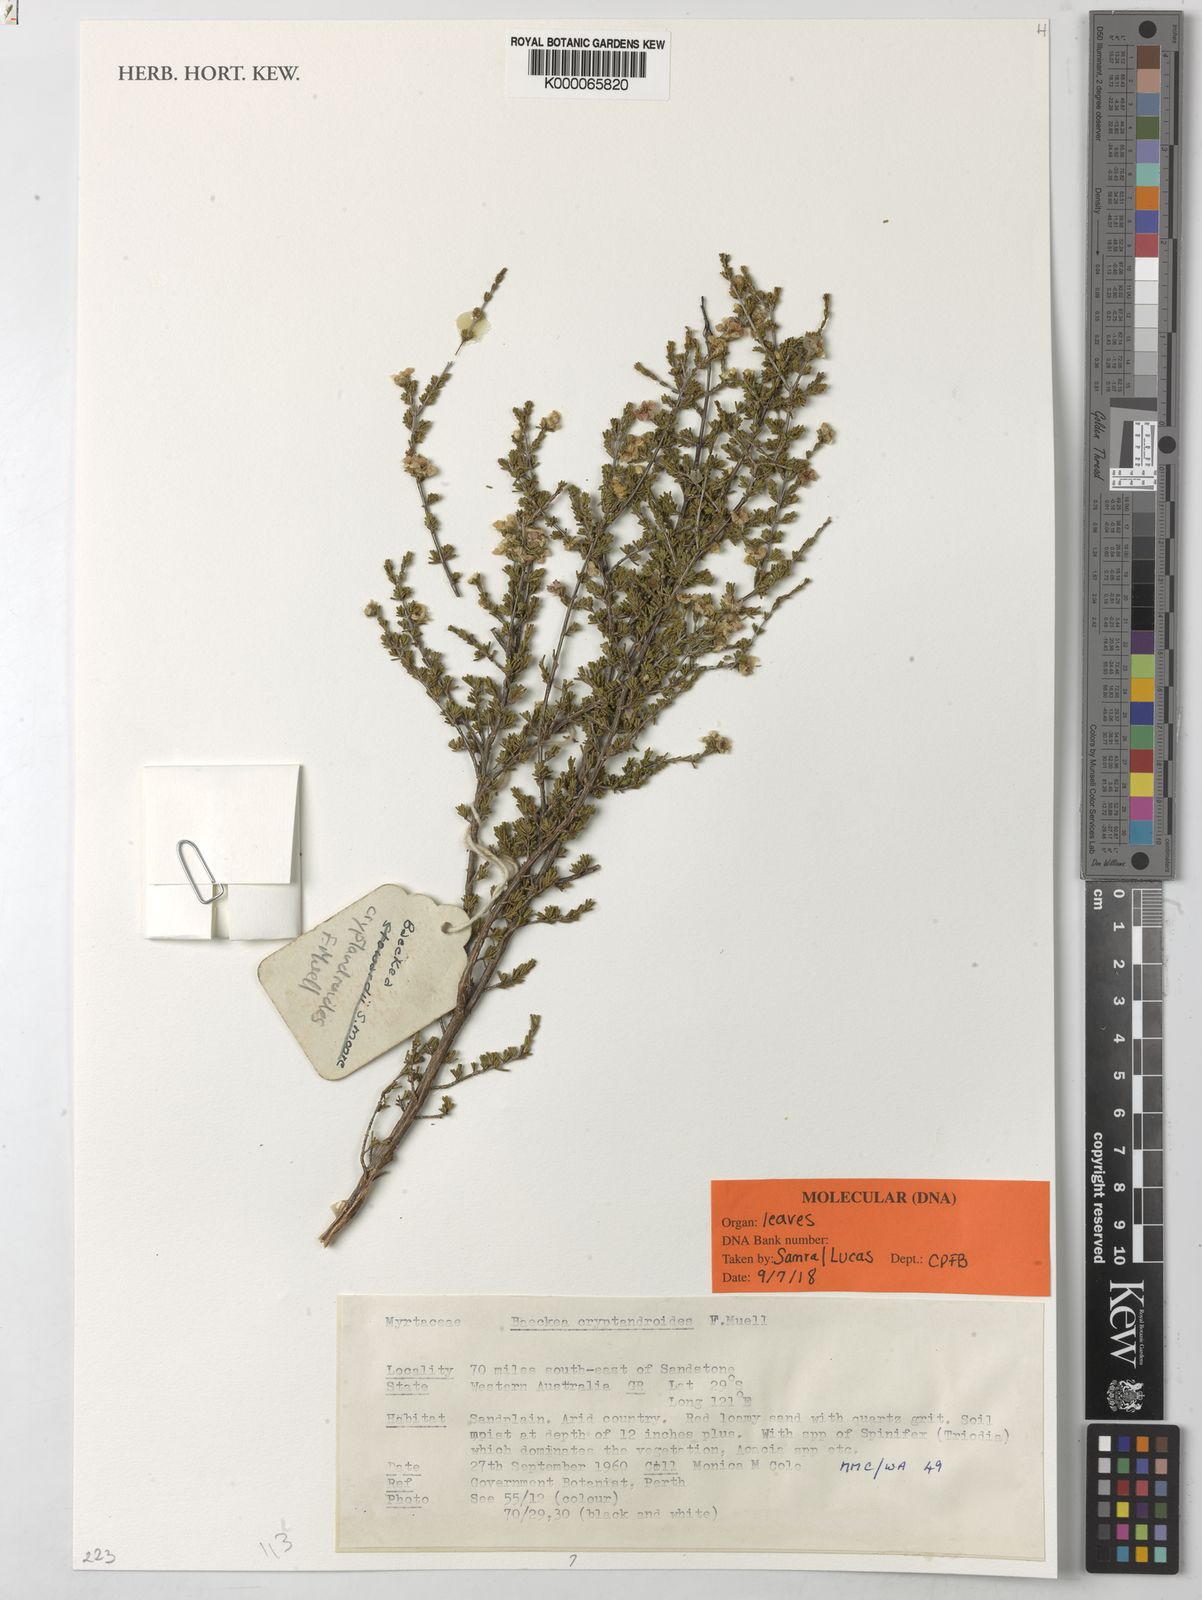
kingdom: Plantae
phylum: Tracheophyta
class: Magnoliopsida
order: Myrtales
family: Myrtaceae
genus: Enekbatus
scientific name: Enekbatus cryptandroides
